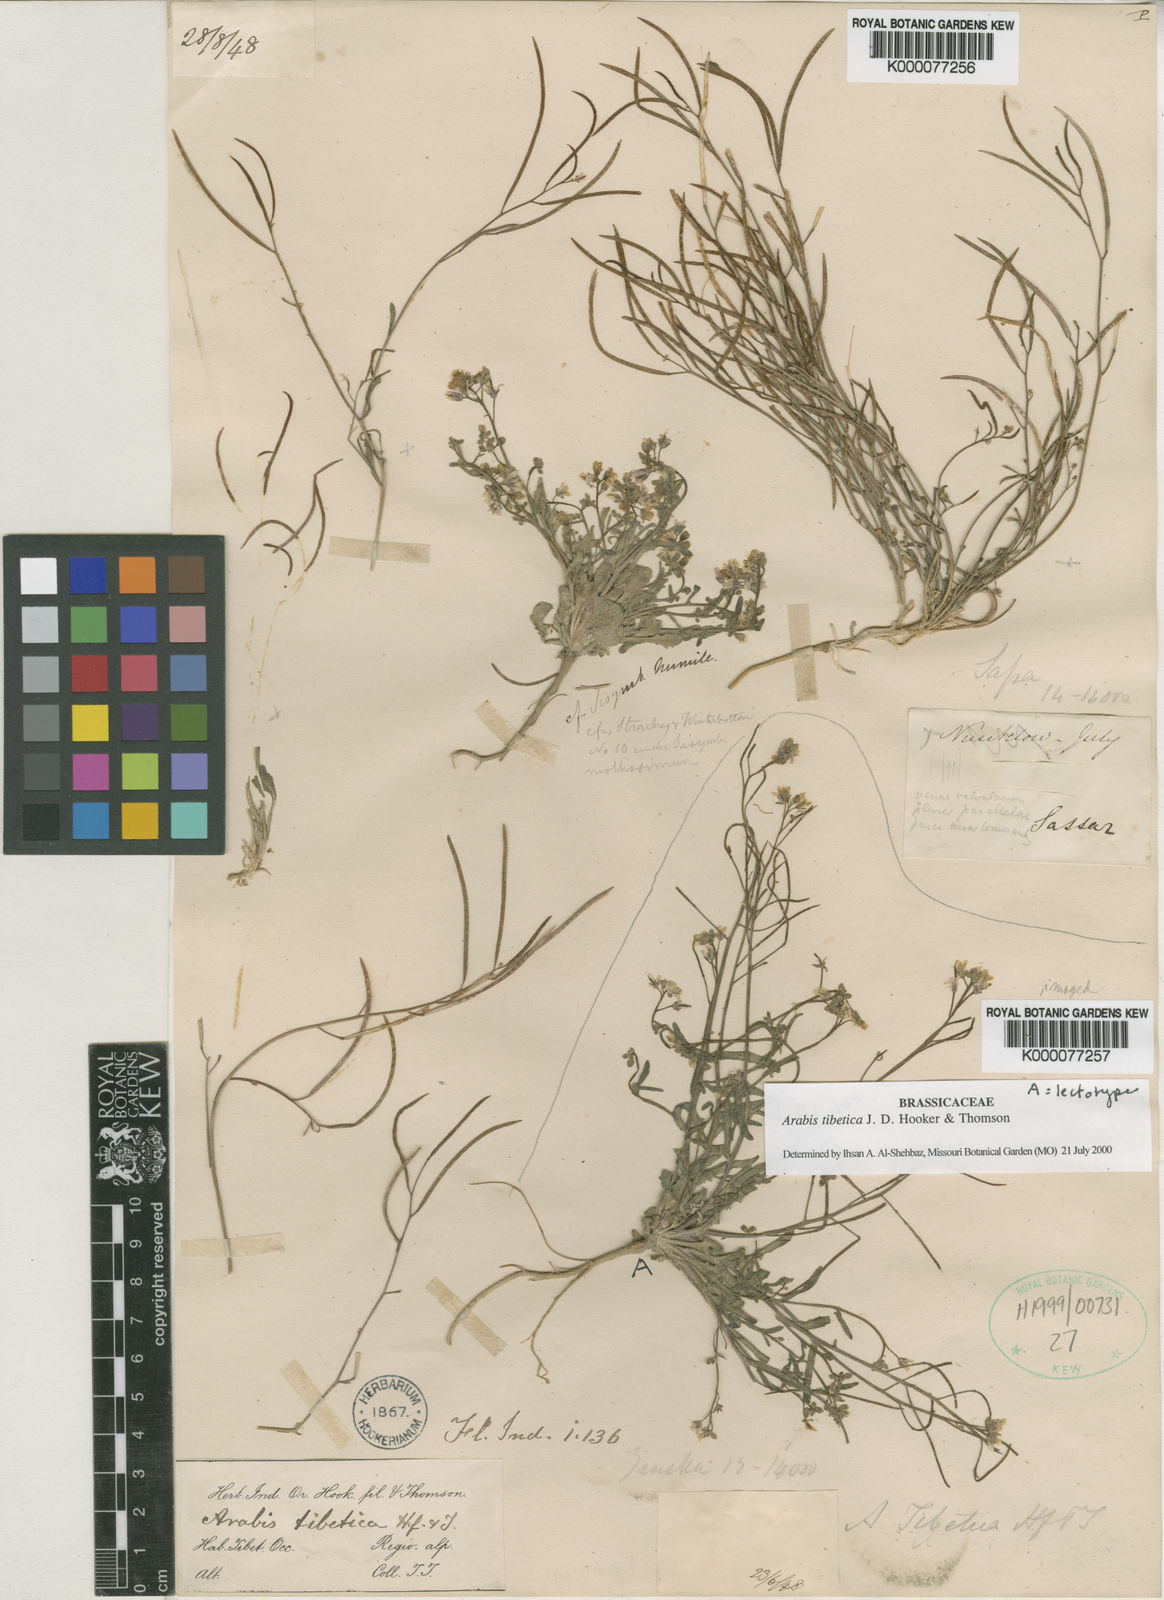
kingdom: Plantae
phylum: Tracheophyta
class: Magnoliopsida
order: Brassicales
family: Brassicaceae
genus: Crucihimalaya
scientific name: Crucihimalaya tibetica
